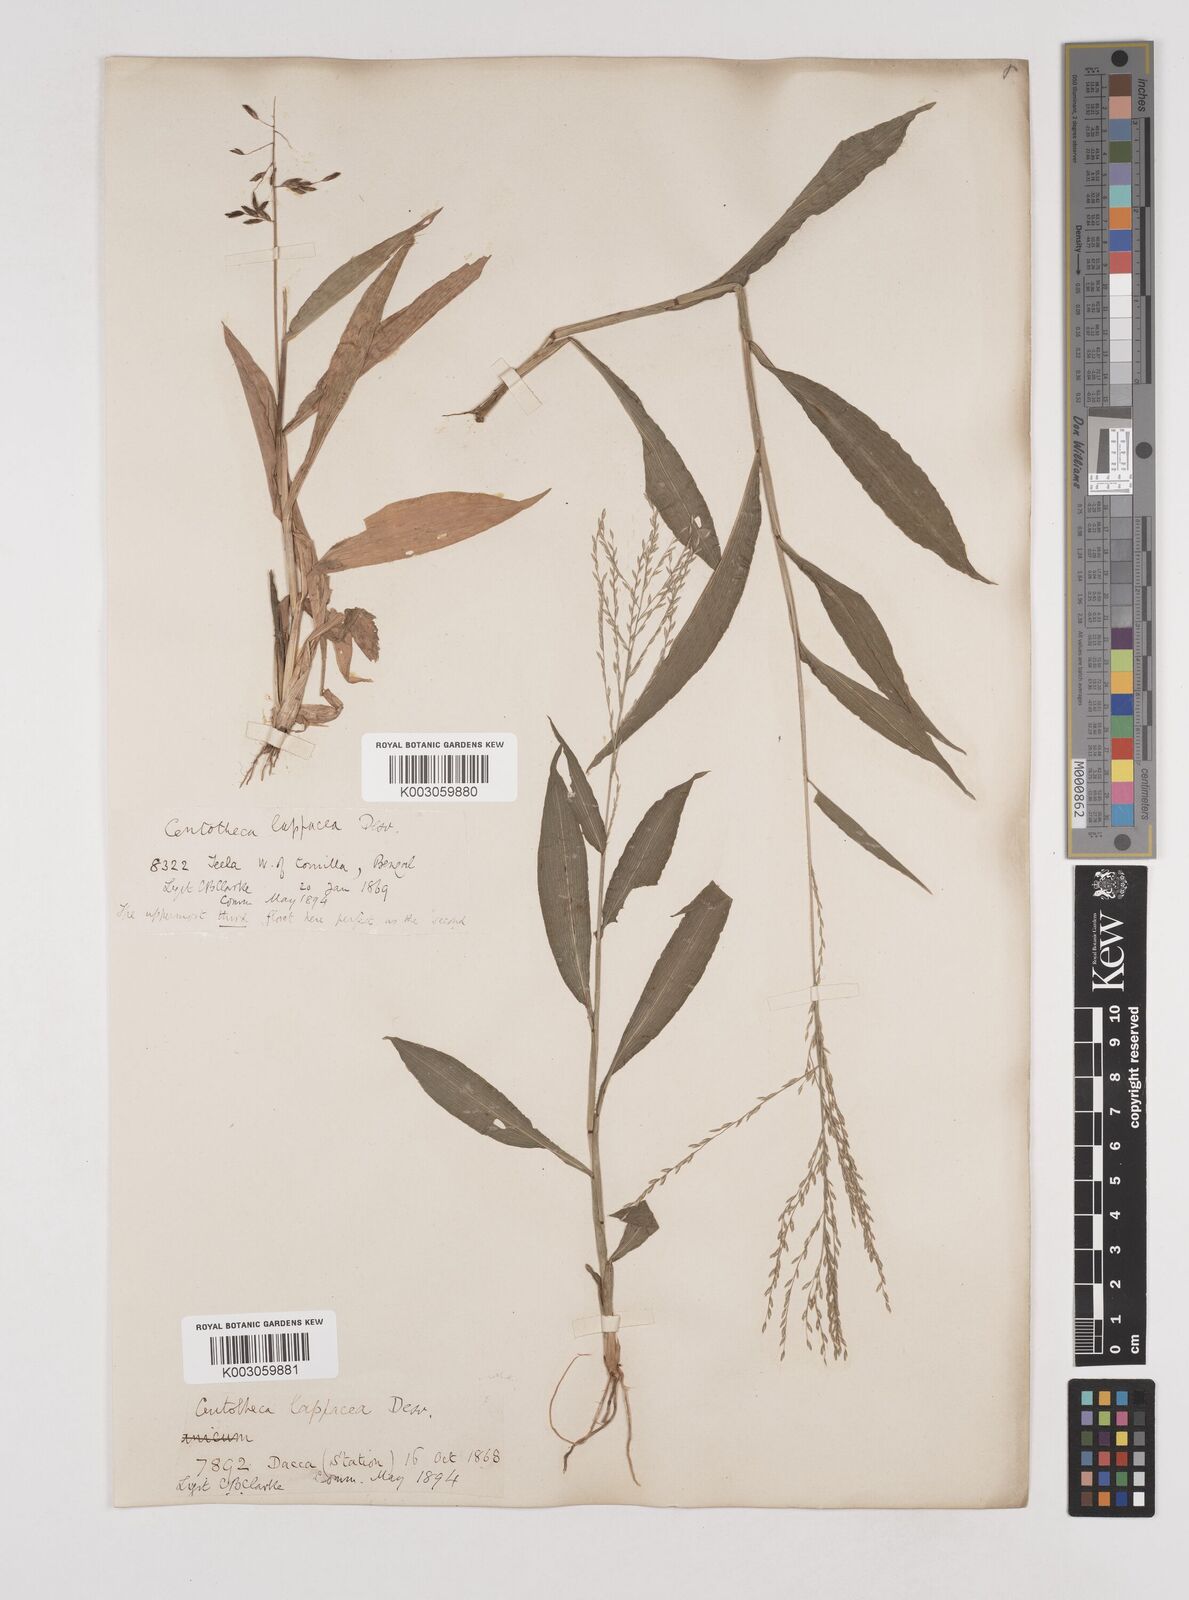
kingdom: Plantae
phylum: Tracheophyta
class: Liliopsida
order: Poales
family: Poaceae
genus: Centotheca
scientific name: Centotheca lappacea
